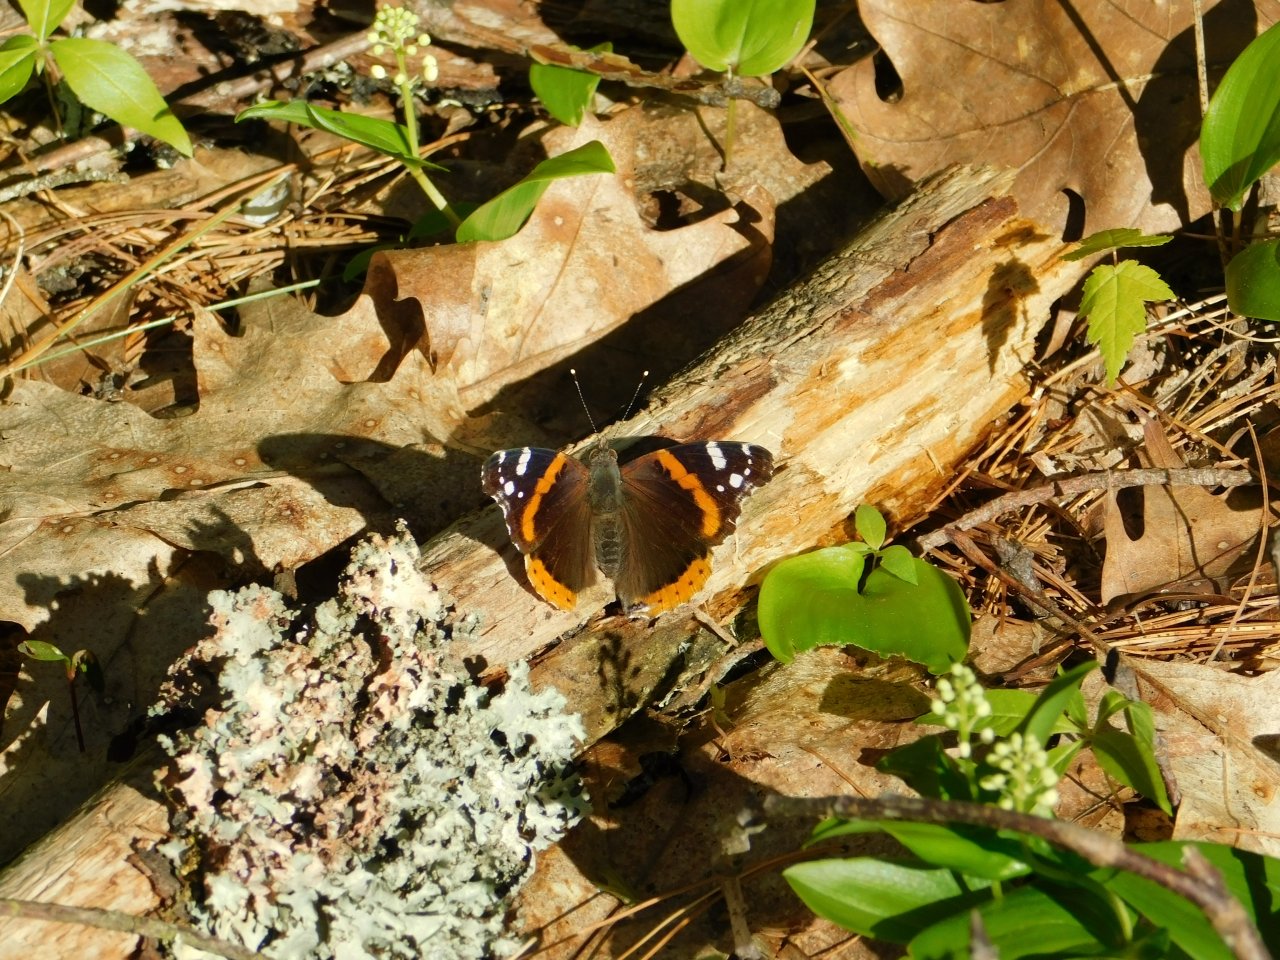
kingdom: Animalia
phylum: Arthropoda
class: Insecta
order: Lepidoptera
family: Nymphalidae
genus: Vanessa
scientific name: Vanessa atalanta
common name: Red Admiral
